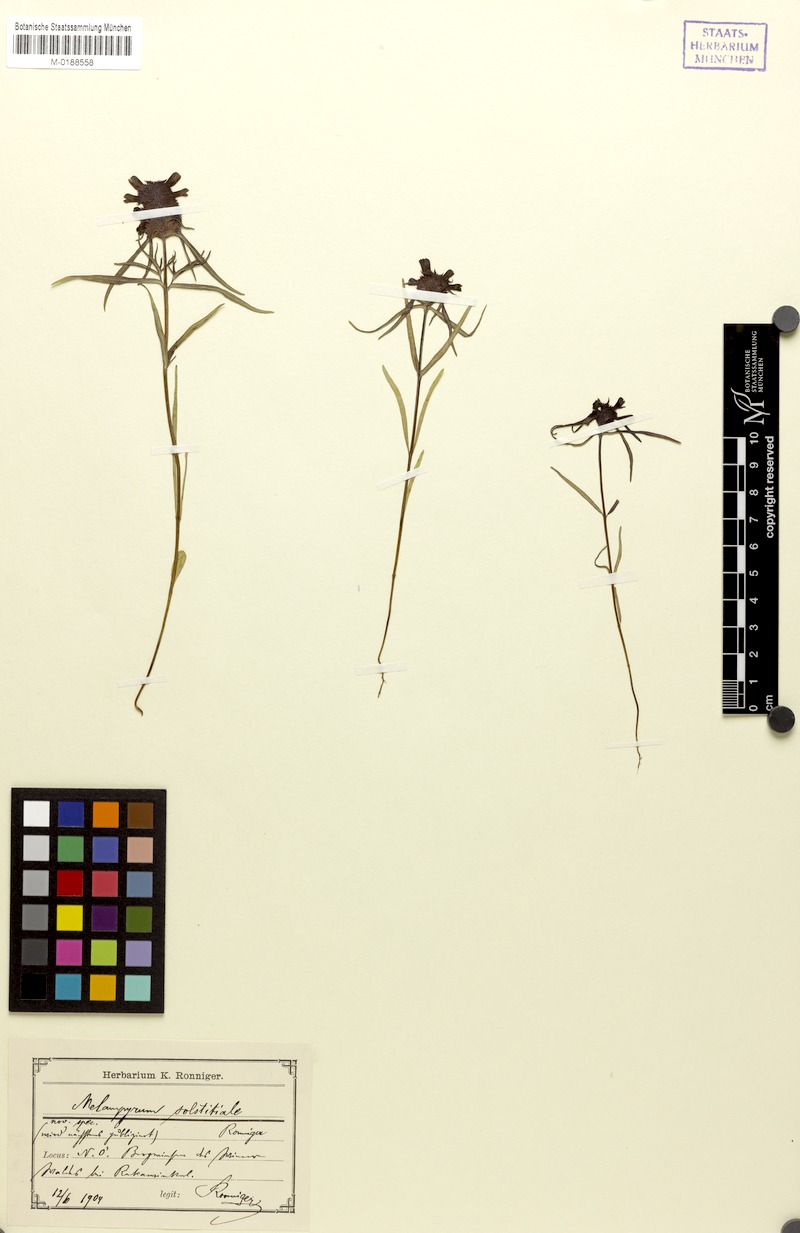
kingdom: Plantae
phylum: Tracheophyta
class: Magnoliopsida
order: Lamiales
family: Orobanchaceae
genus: Melampyrum
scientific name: Melampyrum cristatum
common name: Crested cow-wheat
